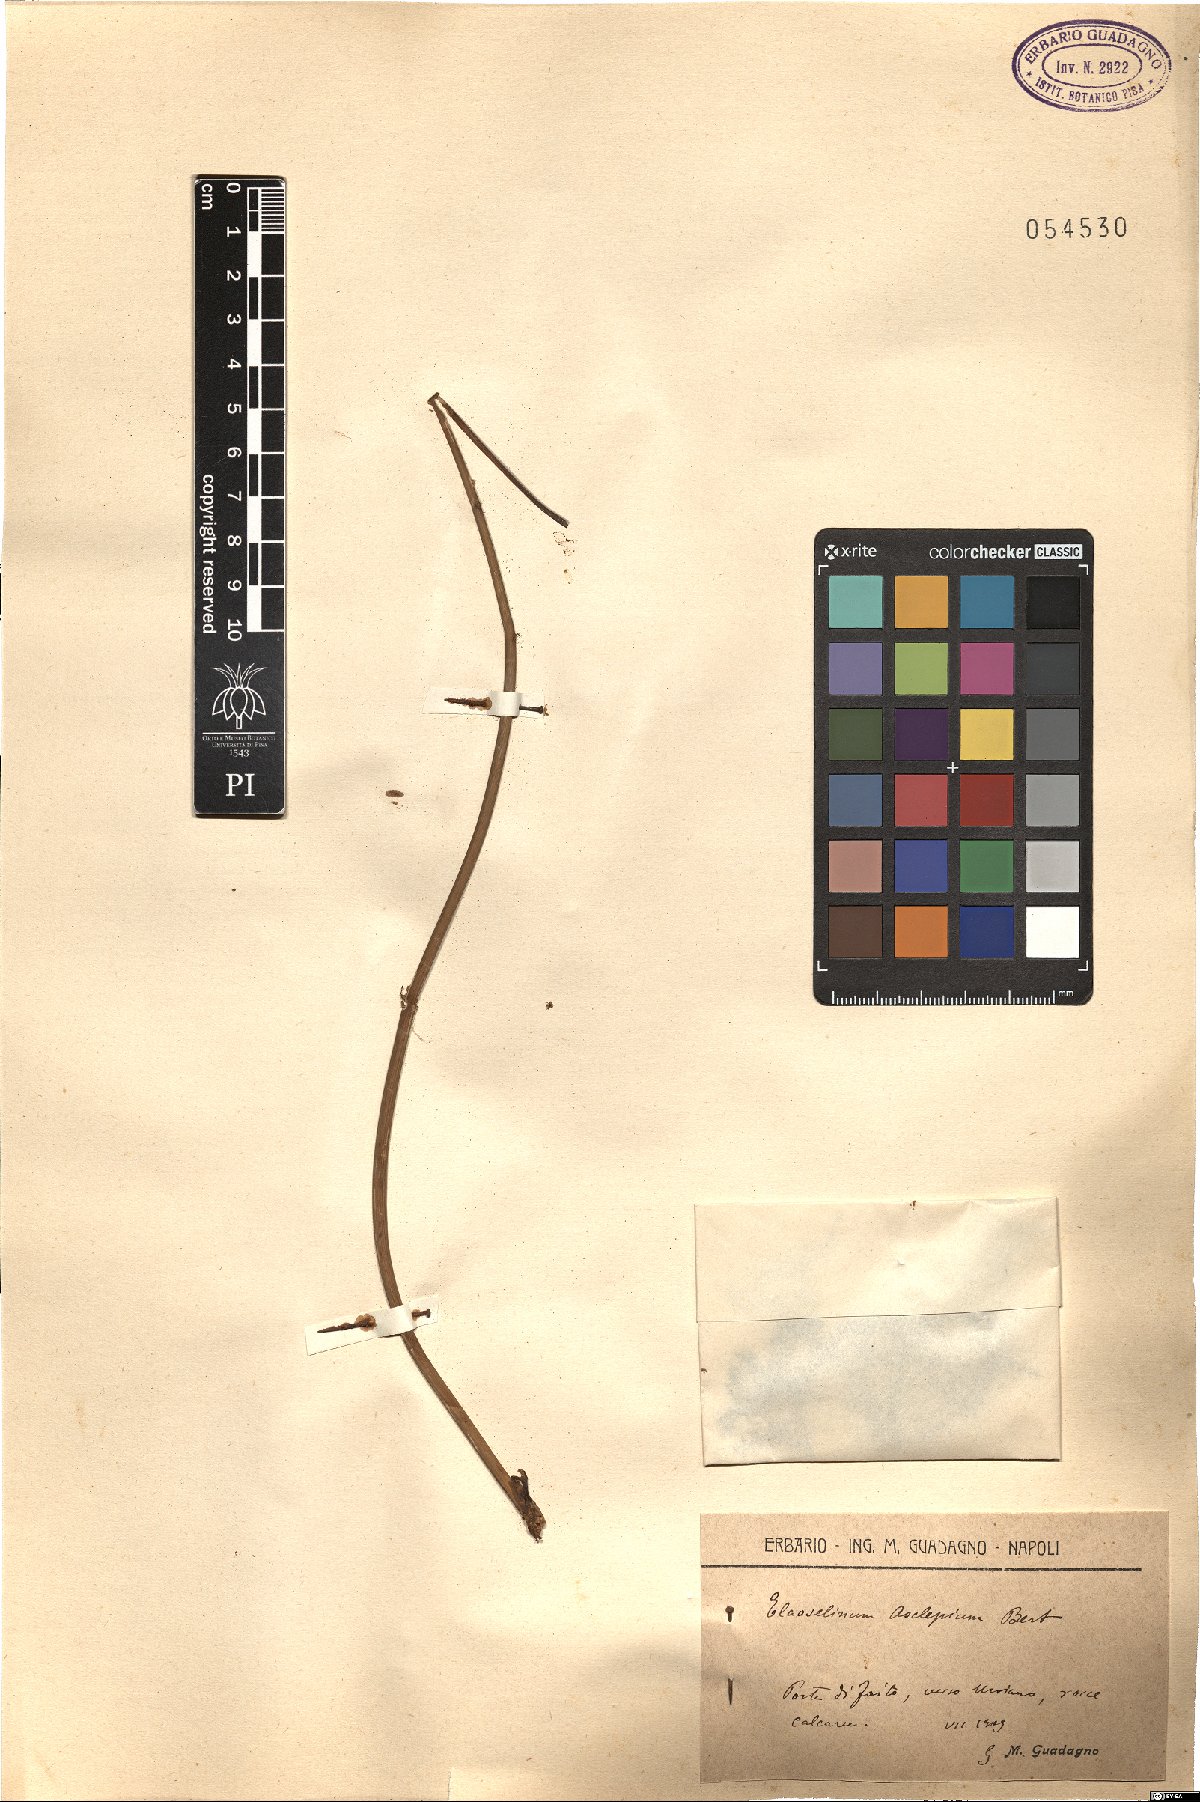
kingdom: Plantae
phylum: Tracheophyta
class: Magnoliopsida
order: Apiales
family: Apiaceae
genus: Thapsia
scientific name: Thapsia asclepium
